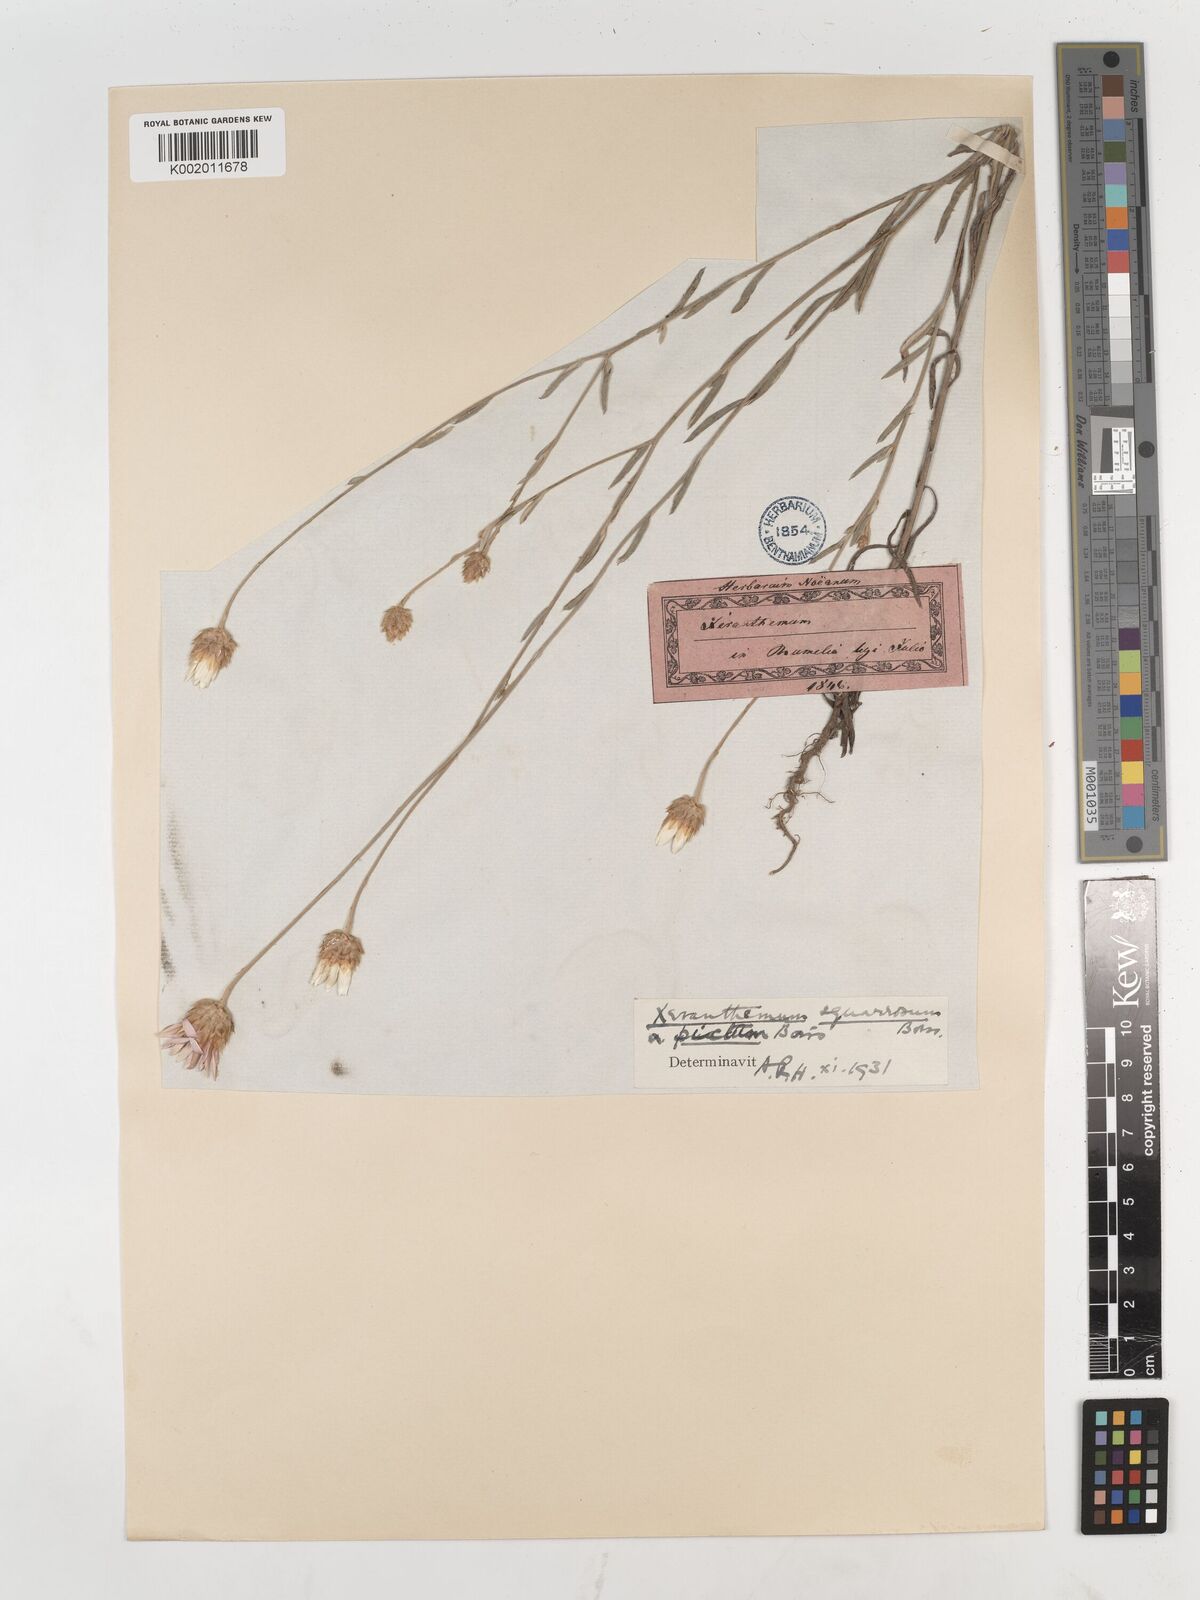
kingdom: Plantae
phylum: Tracheophyta
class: Magnoliopsida
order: Asterales
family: Asteraceae
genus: Xeranthemum
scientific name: Xeranthemum squarrosum
